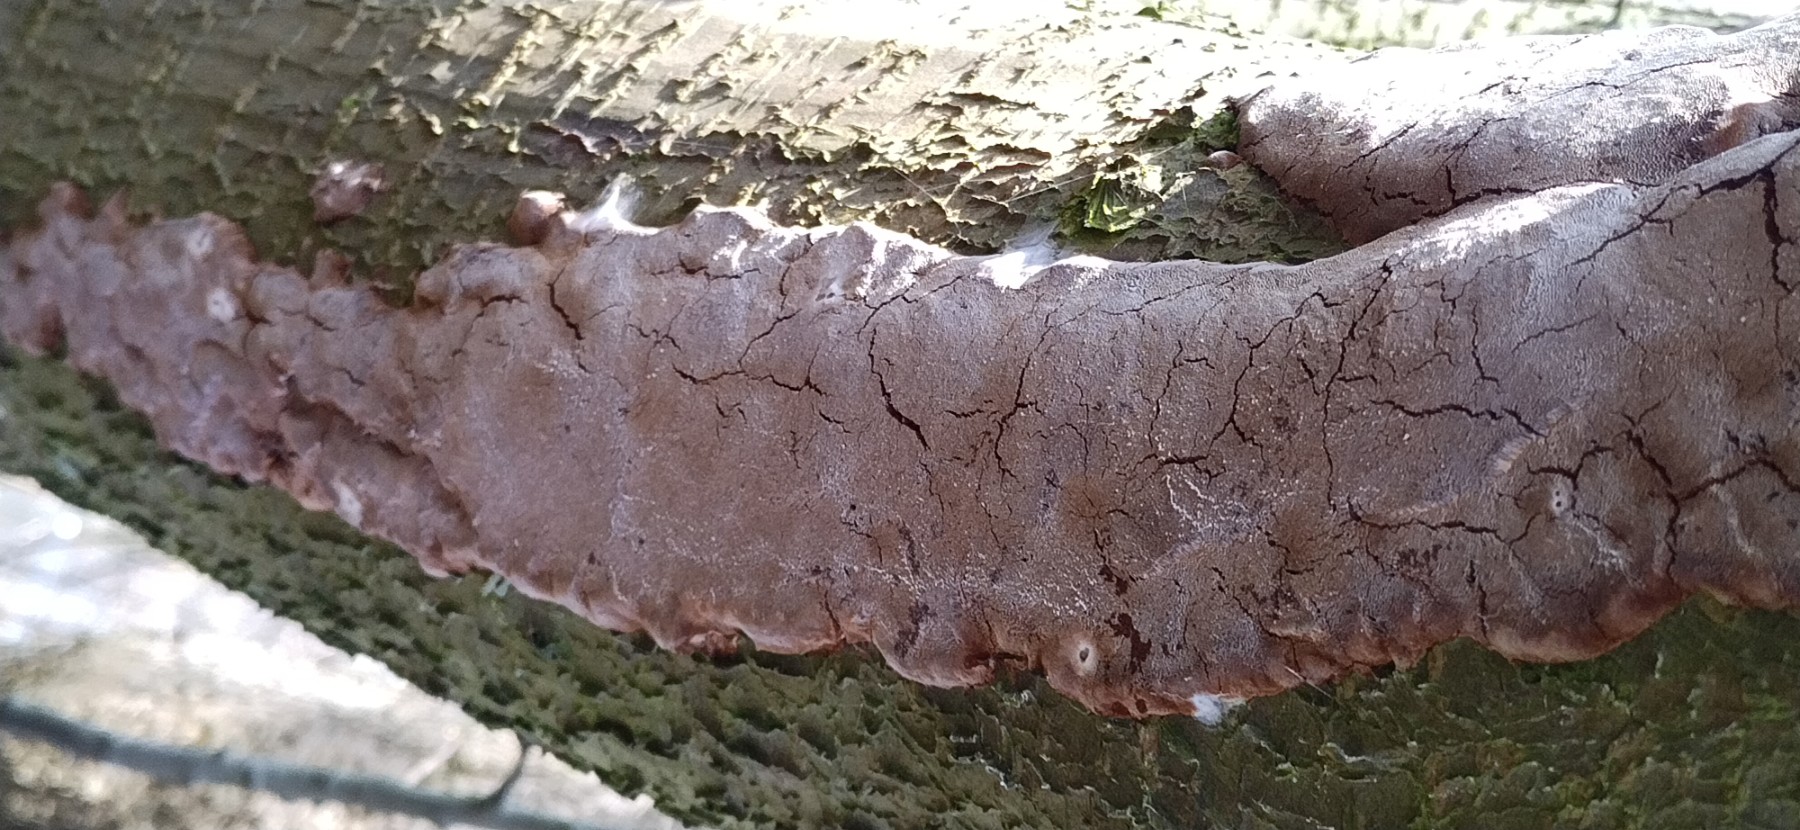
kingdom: Fungi
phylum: Basidiomycota
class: Agaricomycetes
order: Hymenochaetales
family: Hymenochaetaceae
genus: Phellinus
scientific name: Phellinus pomaceus
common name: blomme-ildporesvamp
